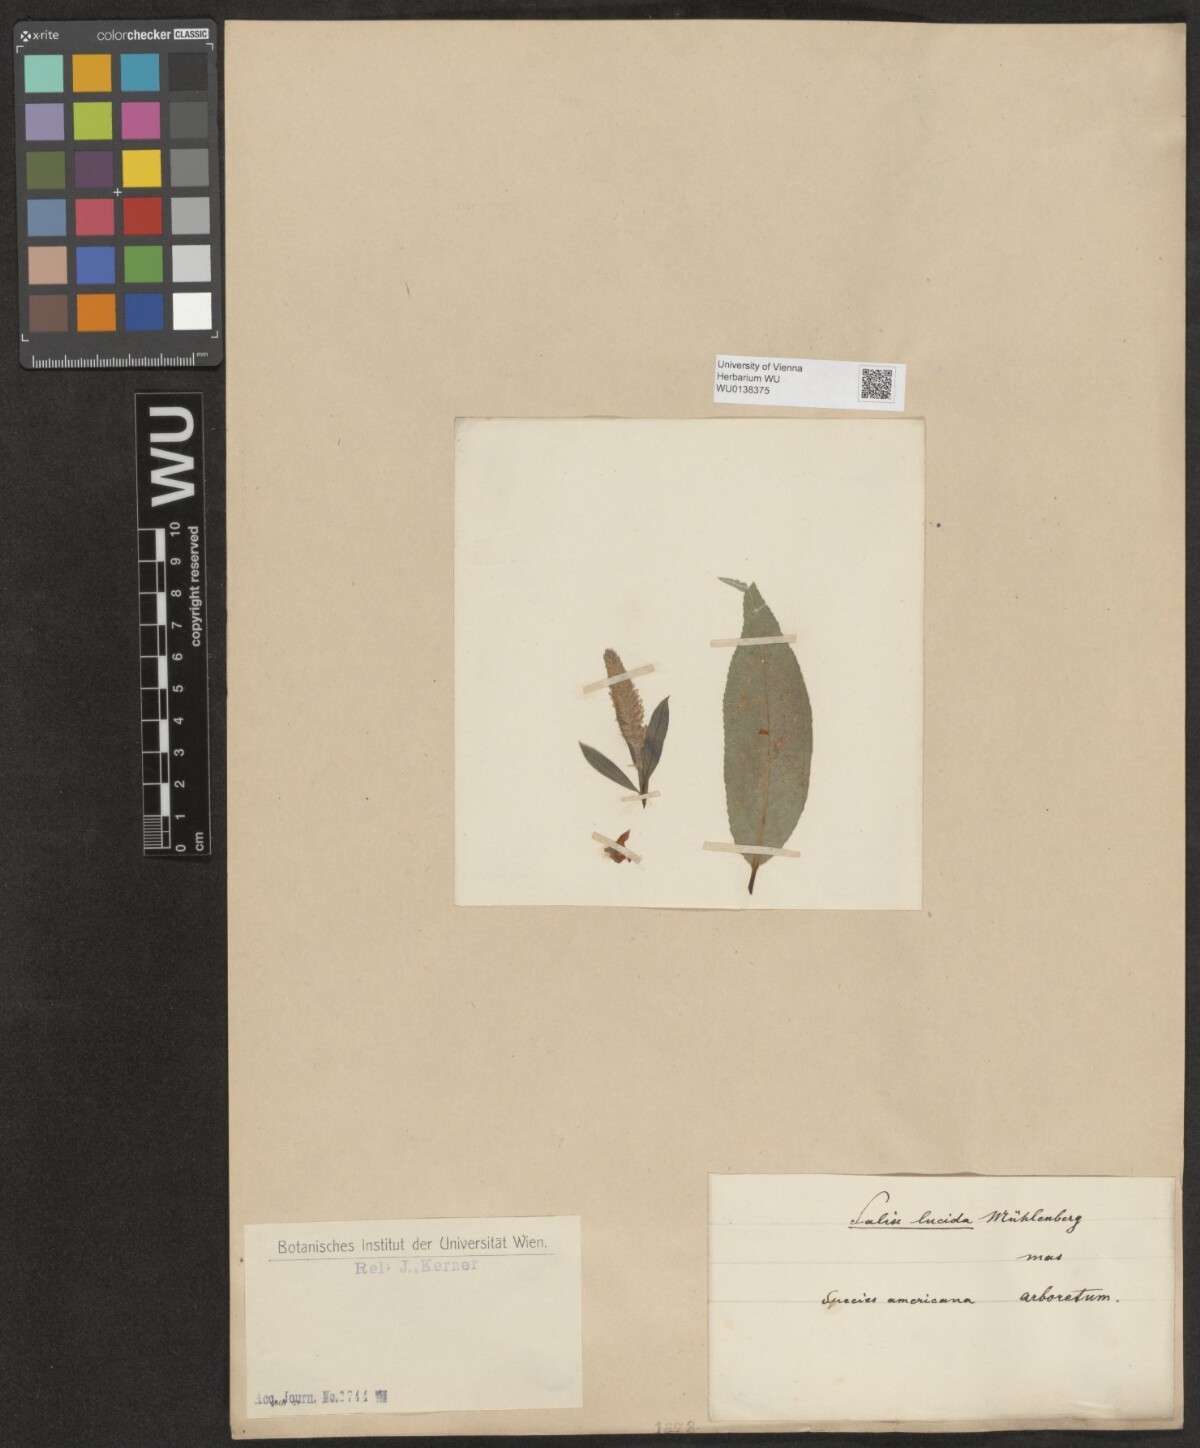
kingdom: Plantae
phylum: Tracheophyta
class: Magnoliopsida
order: Malpighiales
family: Salicaceae
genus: Salix
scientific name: Salix lucida
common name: Shining willow
